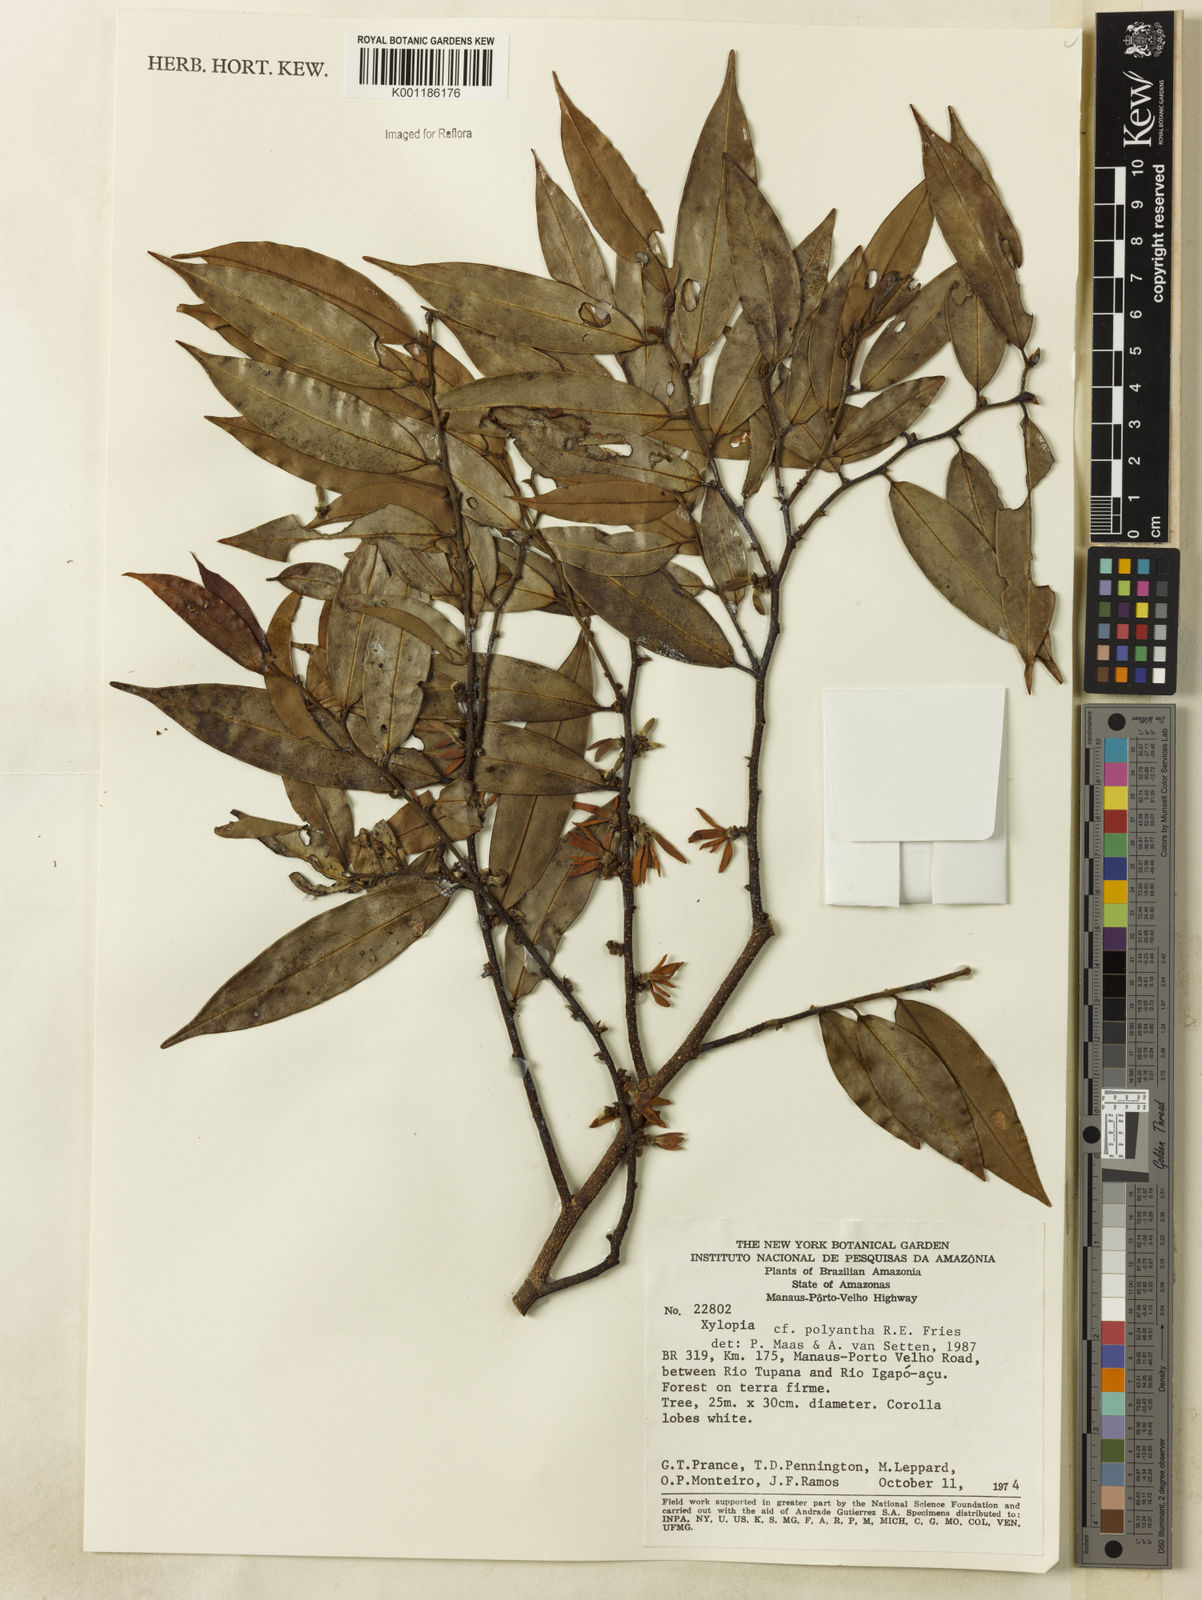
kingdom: Plantae
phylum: Tracheophyta
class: Magnoliopsida
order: Magnoliales
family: Annonaceae
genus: Xylopia
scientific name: Xylopia polyantha
